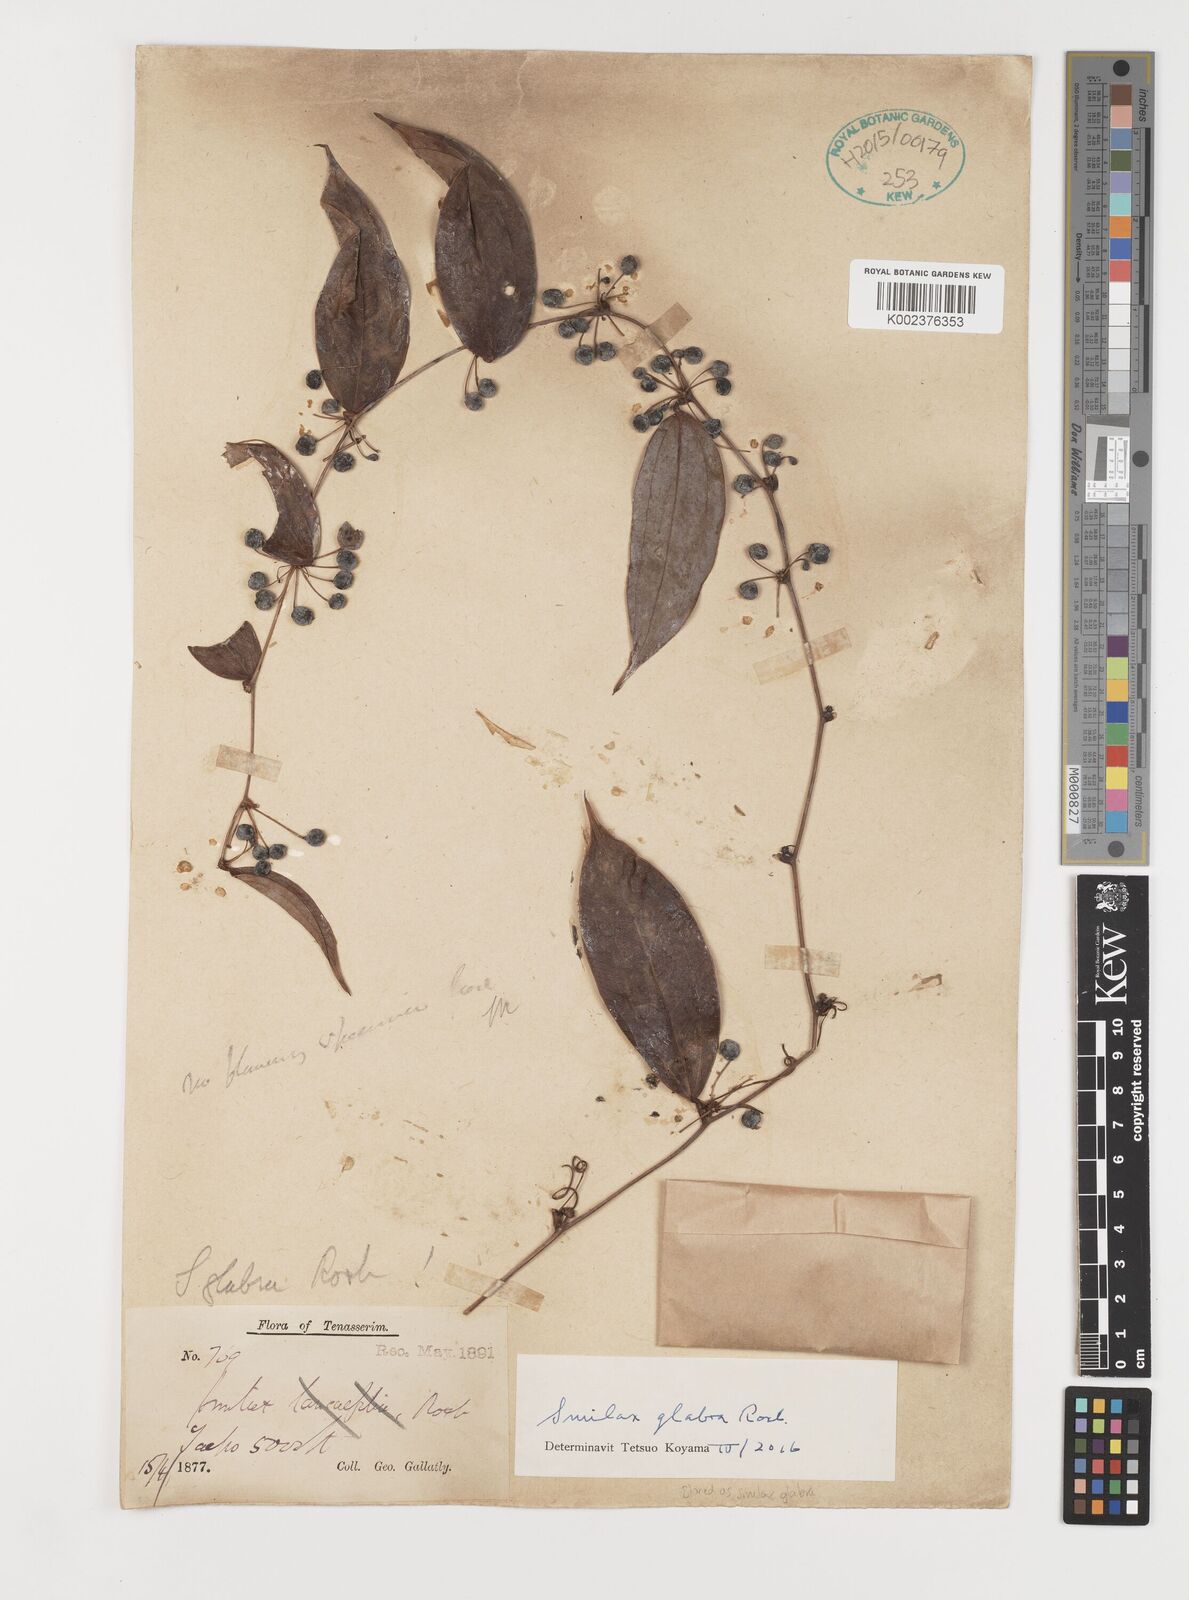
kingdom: Plantae
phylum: Tracheophyta
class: Liliopsida
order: Liliales
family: Smilacaceae
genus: Smilax
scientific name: Smilax glabra
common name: Chinese smilax
